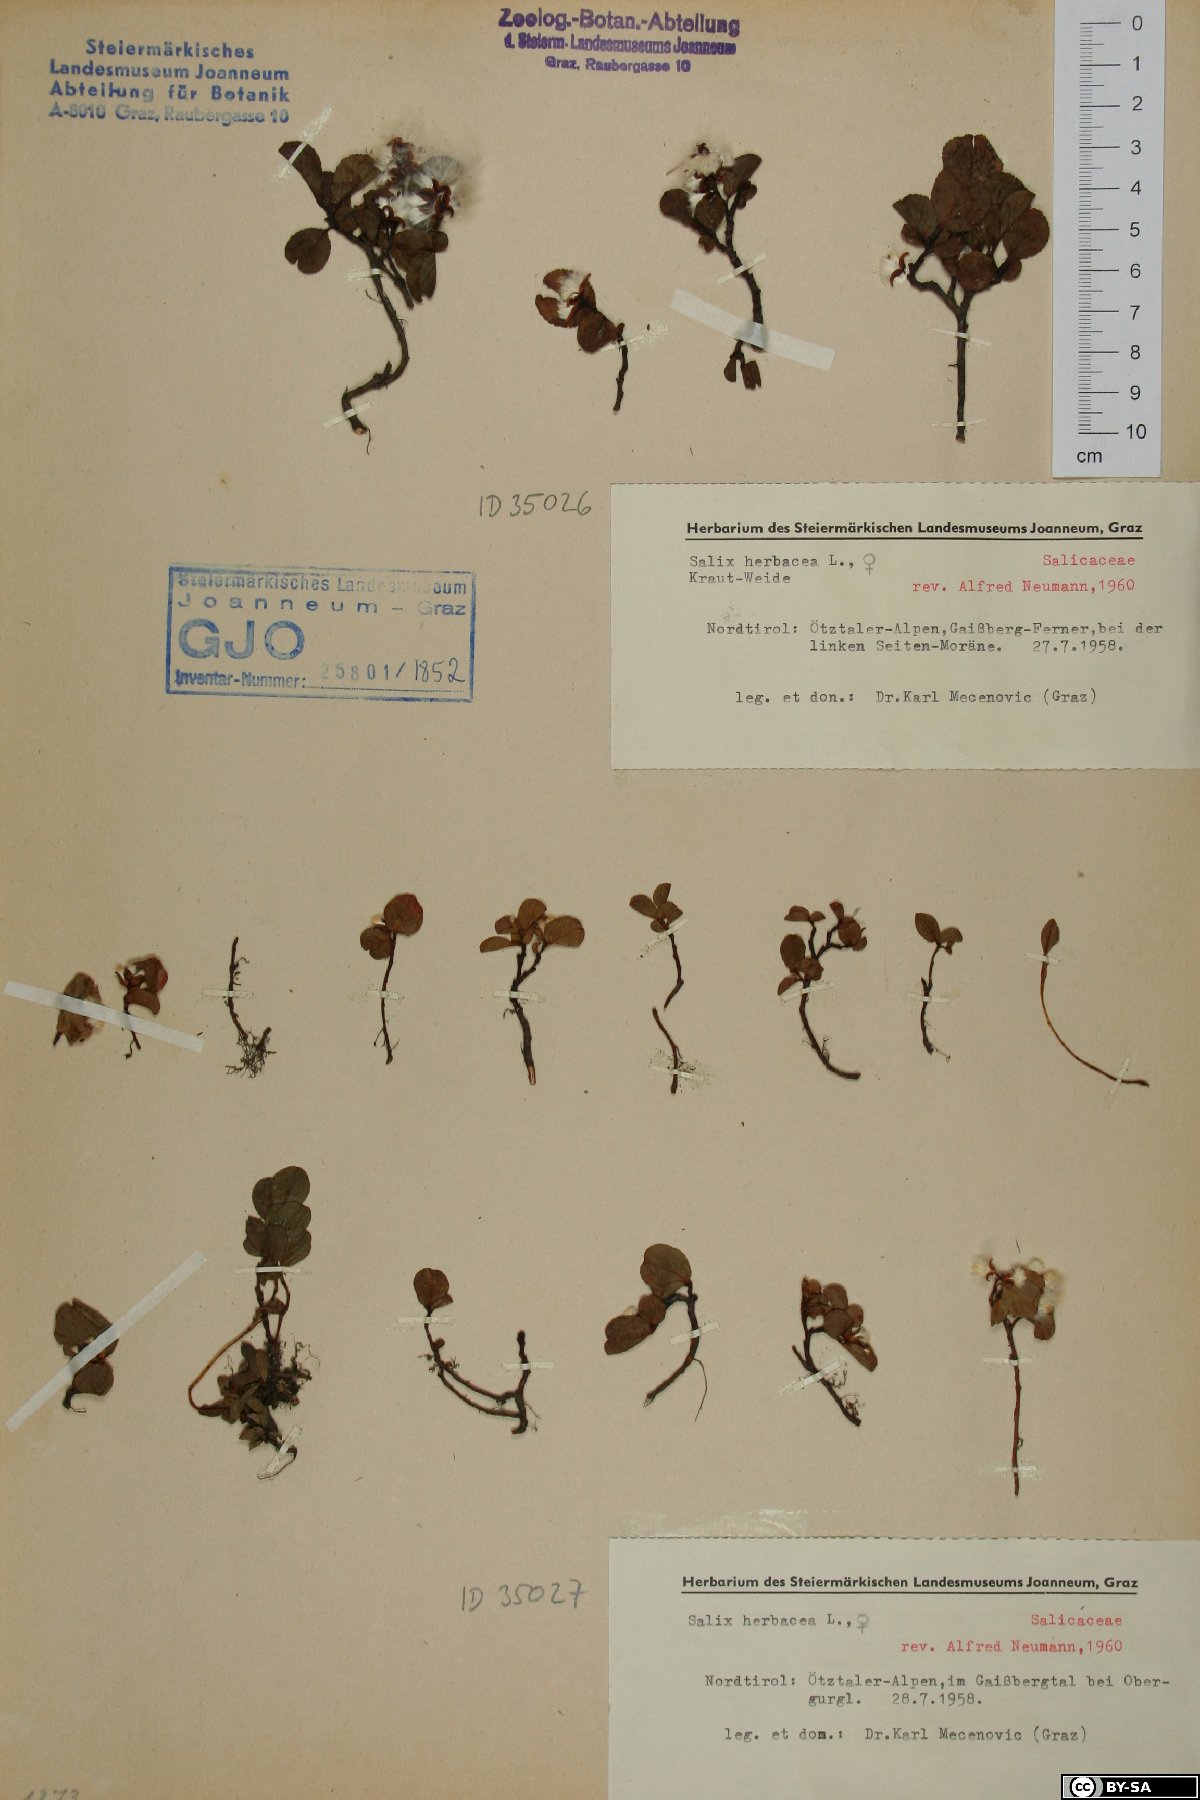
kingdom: Plantae
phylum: Tracheophyta
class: Magnoliopsida
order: Malpighiales
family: Salicaceae
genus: Salix
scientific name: Salix herbacea
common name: Dwarf willow
